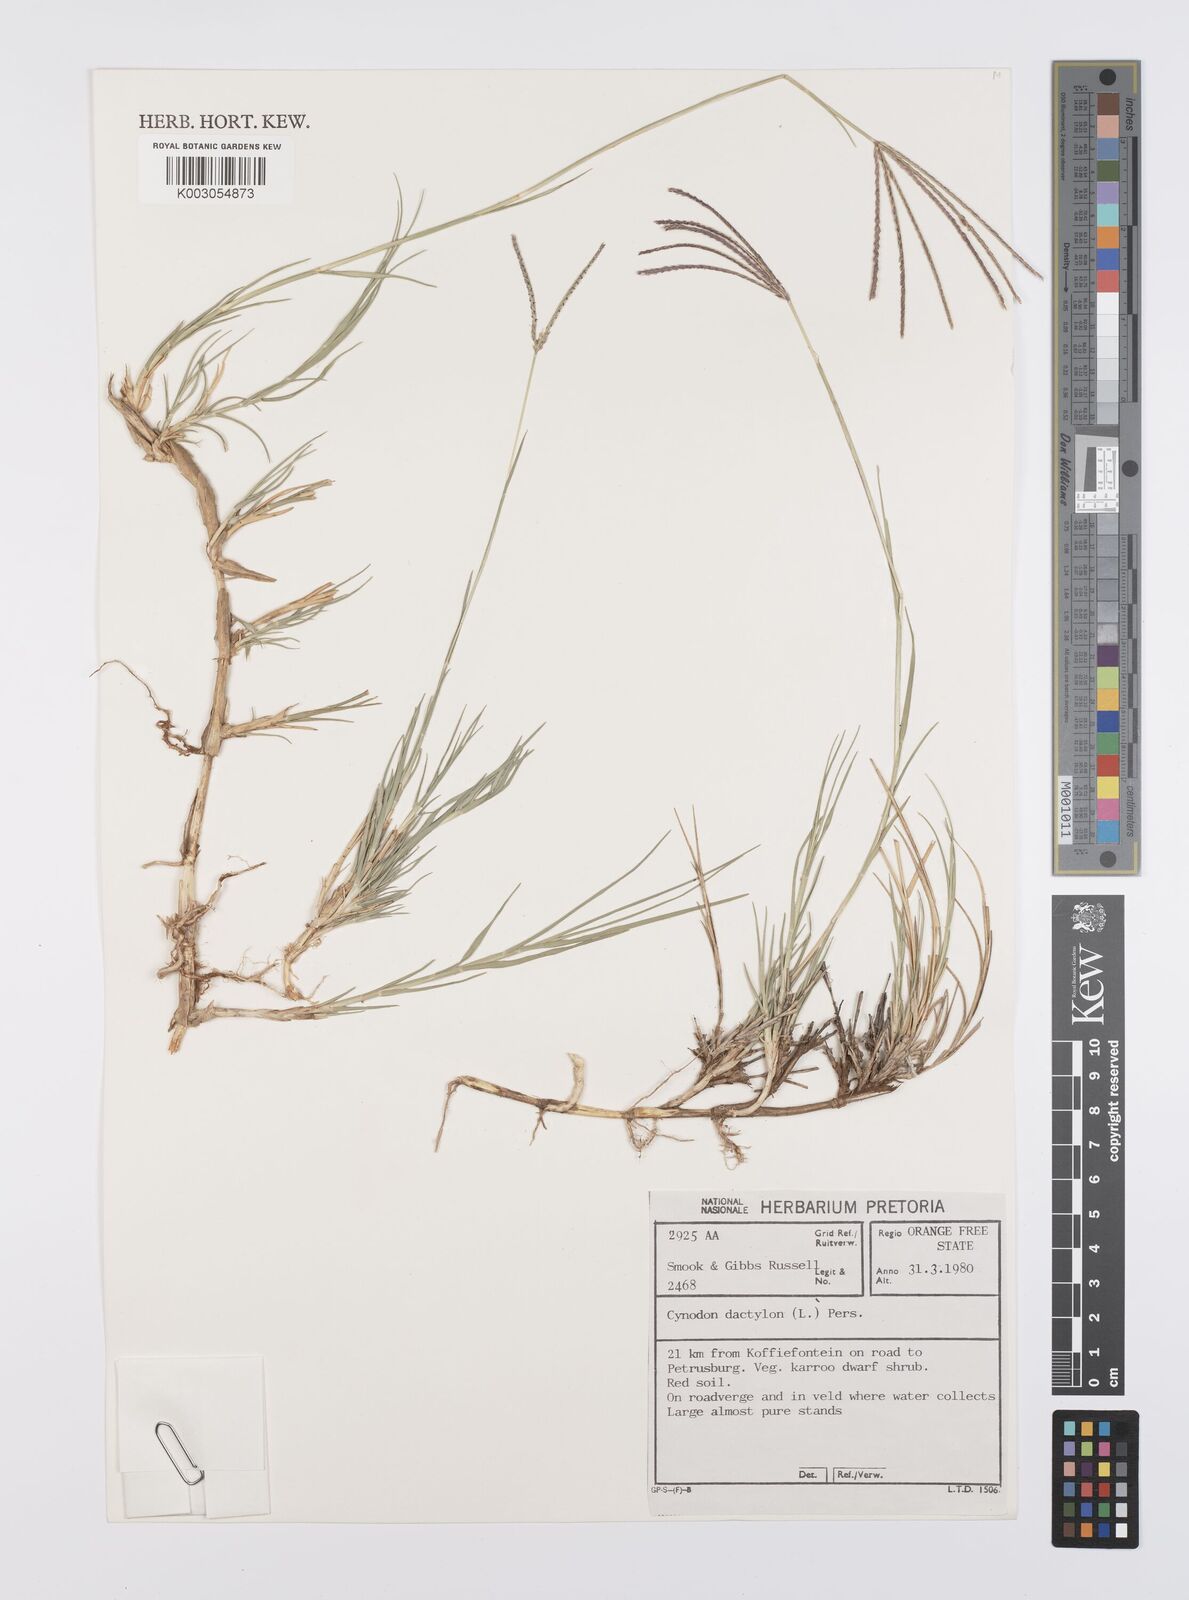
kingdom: Plantae
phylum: Tracheophyta
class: Liliopsida
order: Poales
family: Poaceae
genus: Cynodon
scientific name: Cynodon dactylon
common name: Bermuda grass
